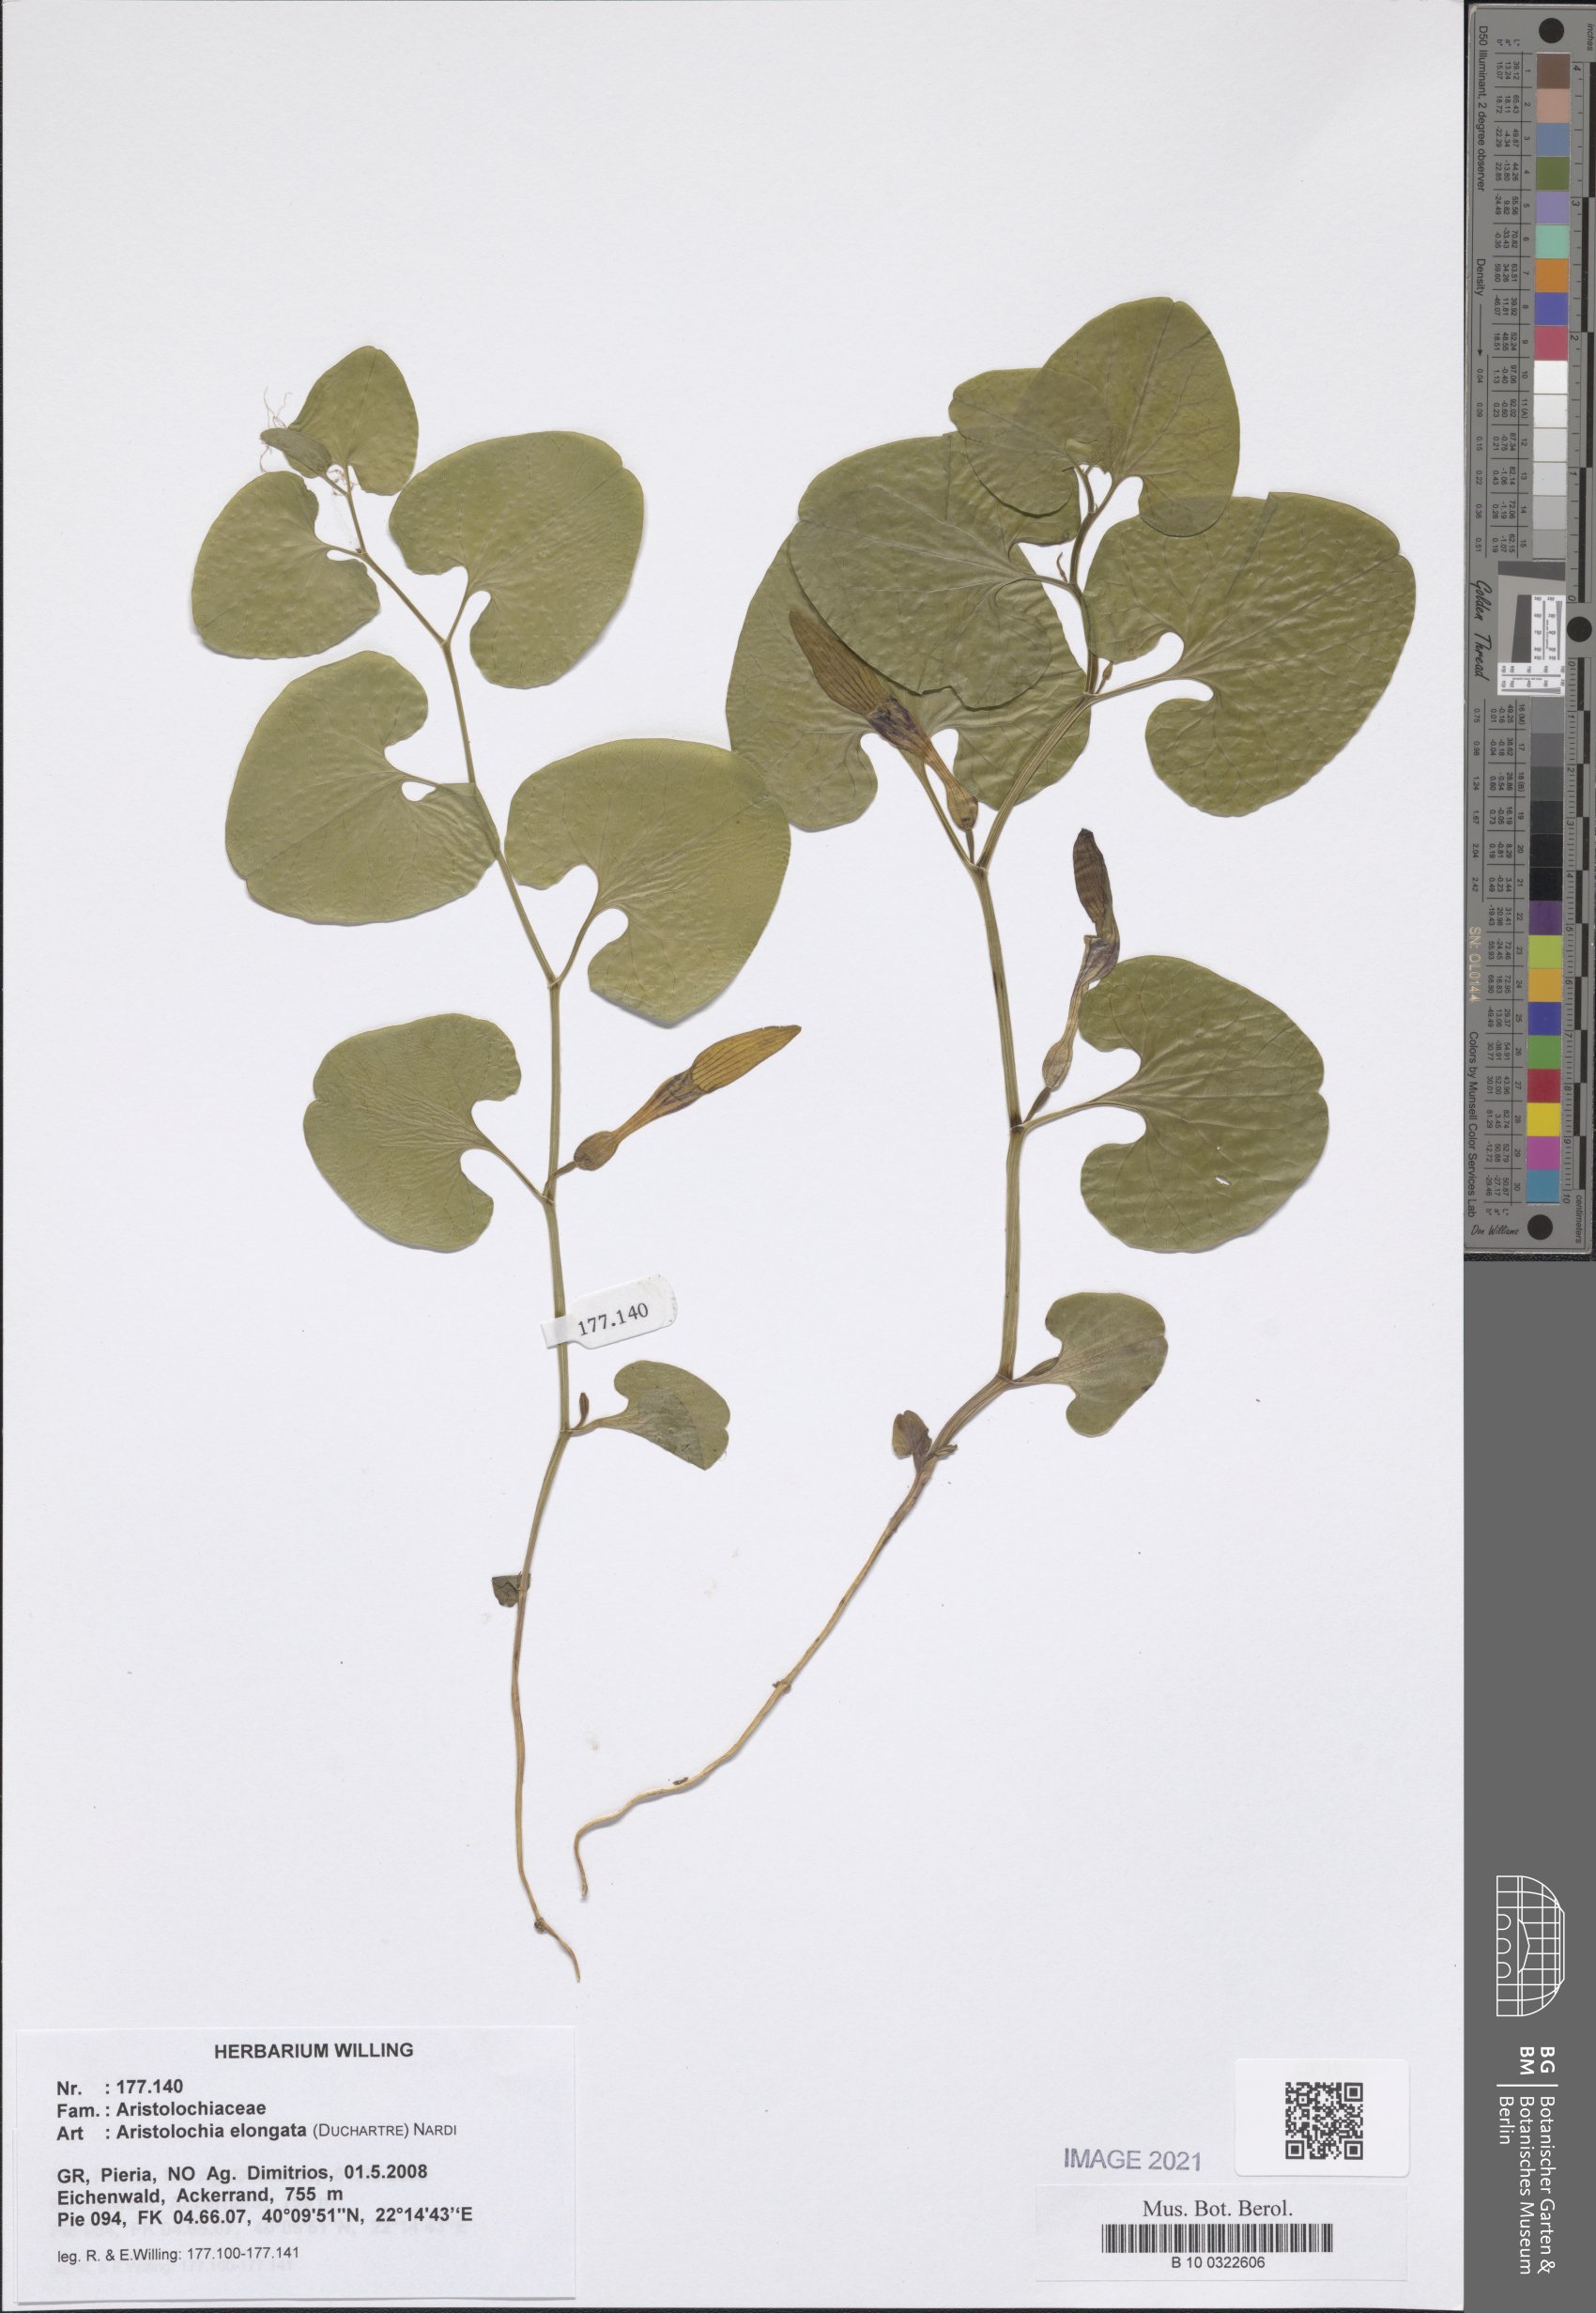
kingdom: Plantae
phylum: Tracheophyta
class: Magnoliopsida
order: Piperales
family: Aristolochiaceae
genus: Aristolochia
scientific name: Aristolochia nardiana
